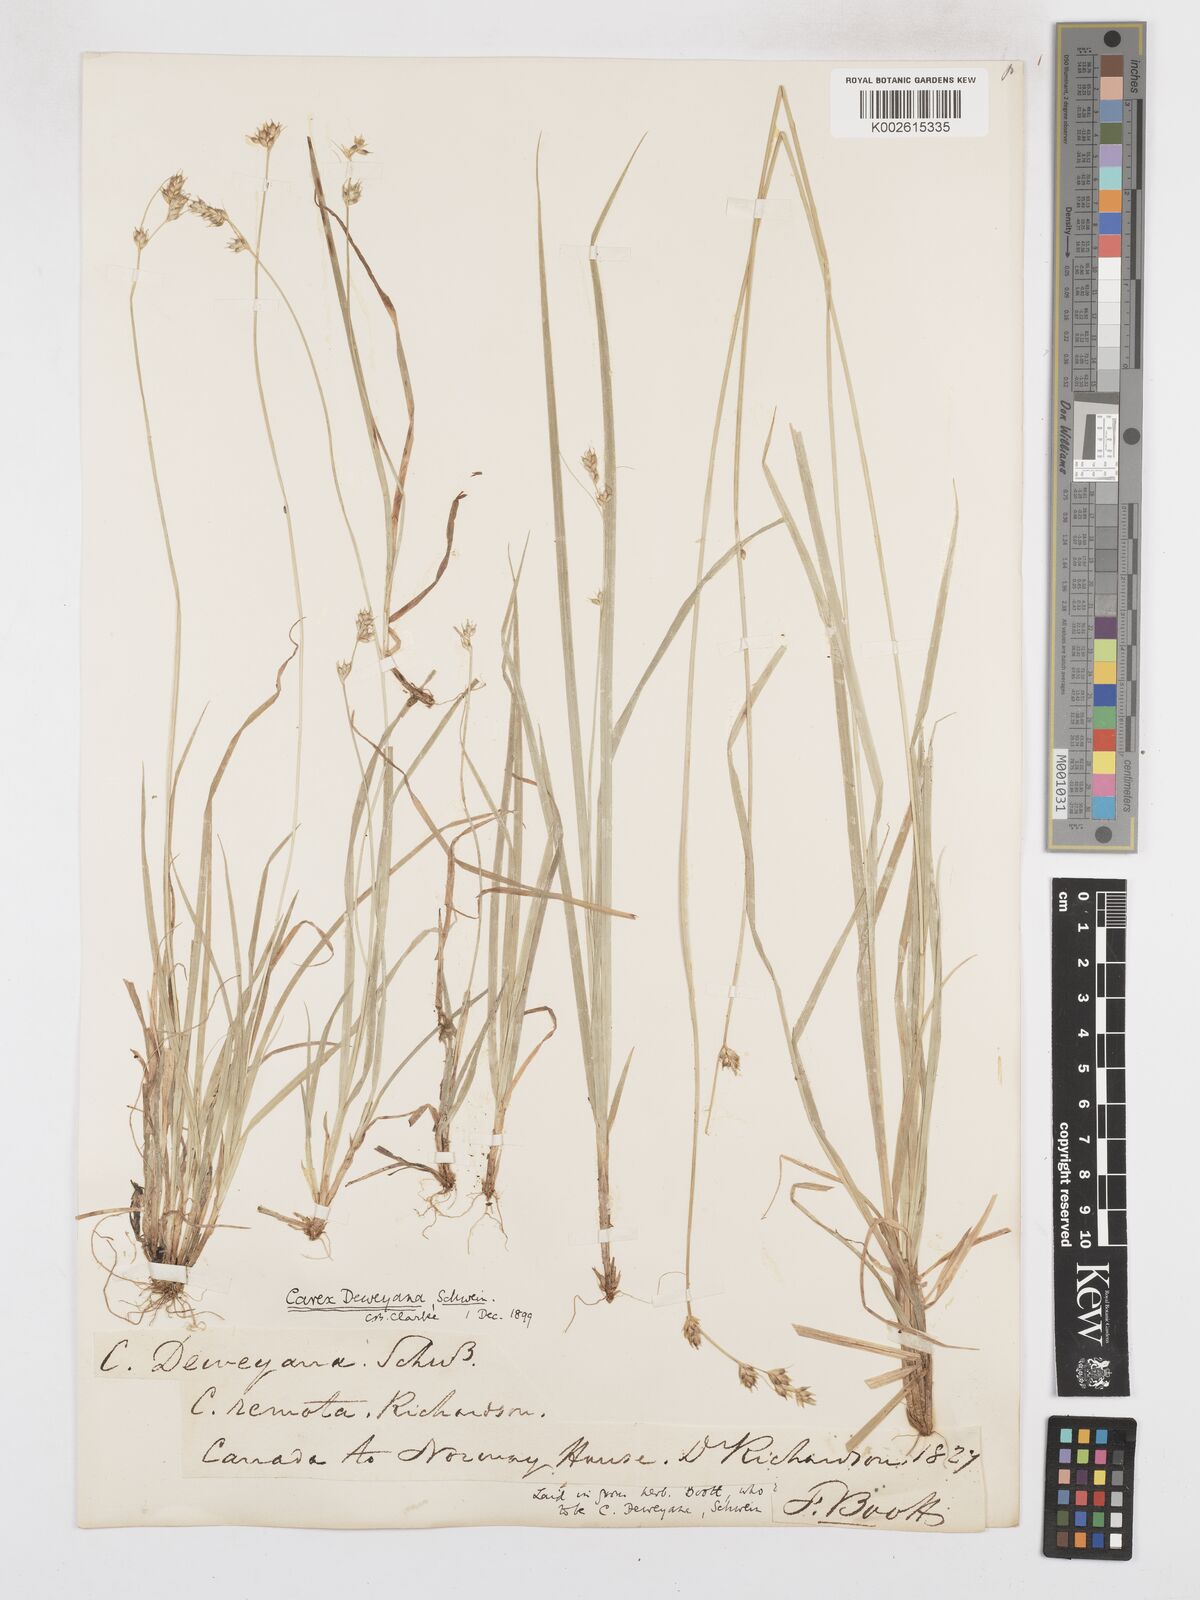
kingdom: Plantae
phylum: Tracheophyta
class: Liliopsida
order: Poales
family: Cyperaceae
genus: Carex
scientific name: Carex deweyana
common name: Dewey's sedge
